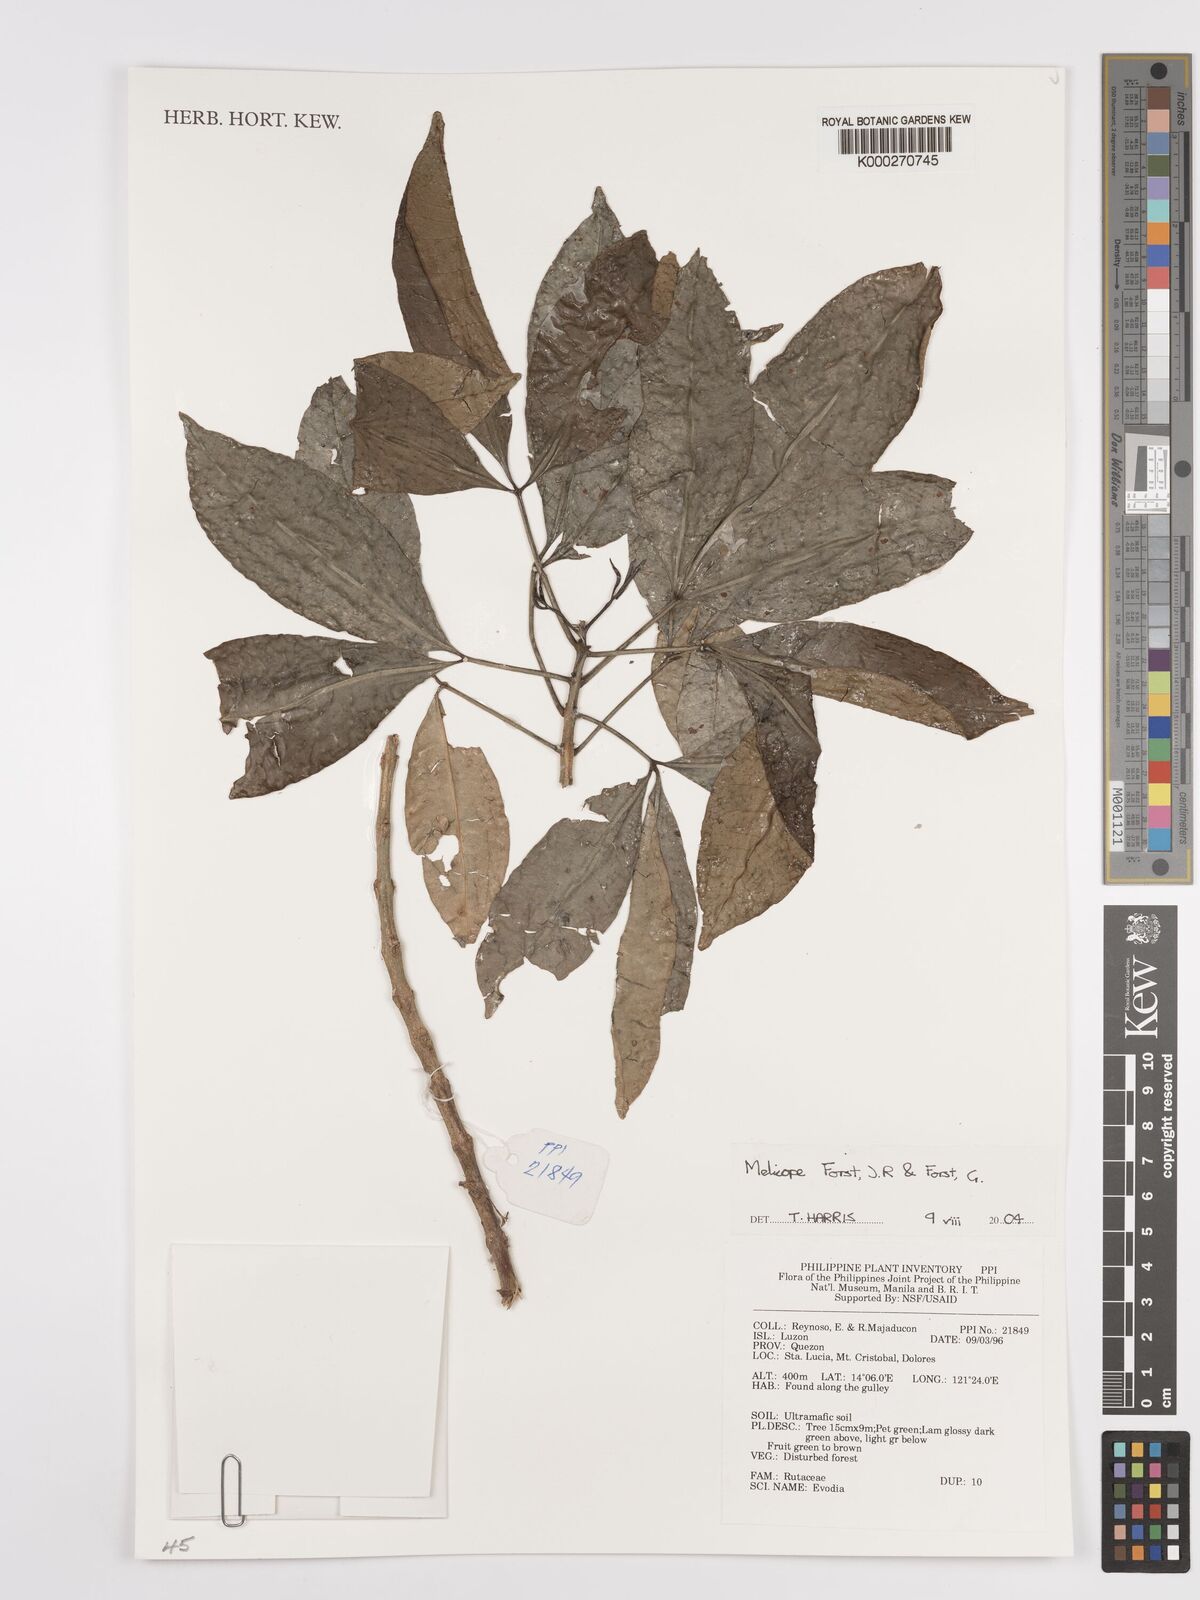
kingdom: Plantae
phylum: Tracheophyta
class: Magnoliopsida
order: Sapindales
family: Rutaceae
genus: Melicope
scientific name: Melicope
